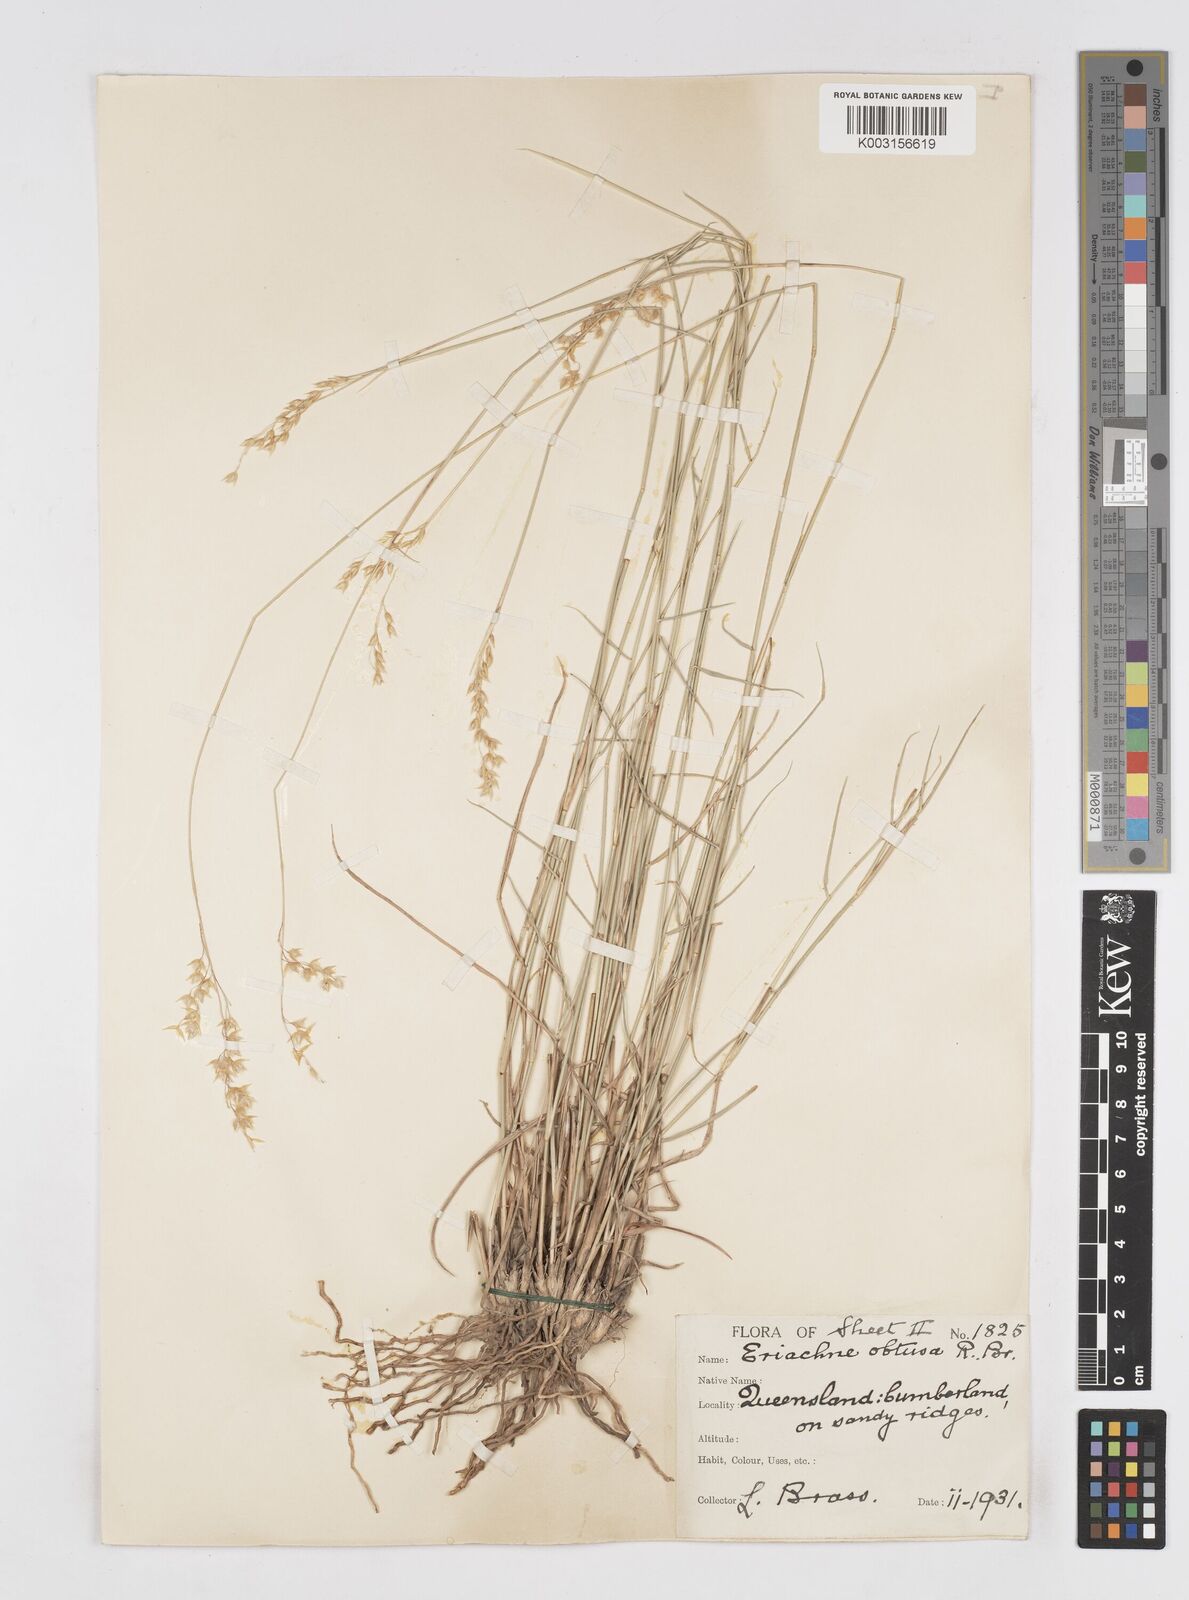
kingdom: Plantae
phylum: Tracheophyta
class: Liliopsida
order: Poales
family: Poaceae
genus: Eriachne
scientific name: Eriachne obtusa
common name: Northern wanderrie grass
